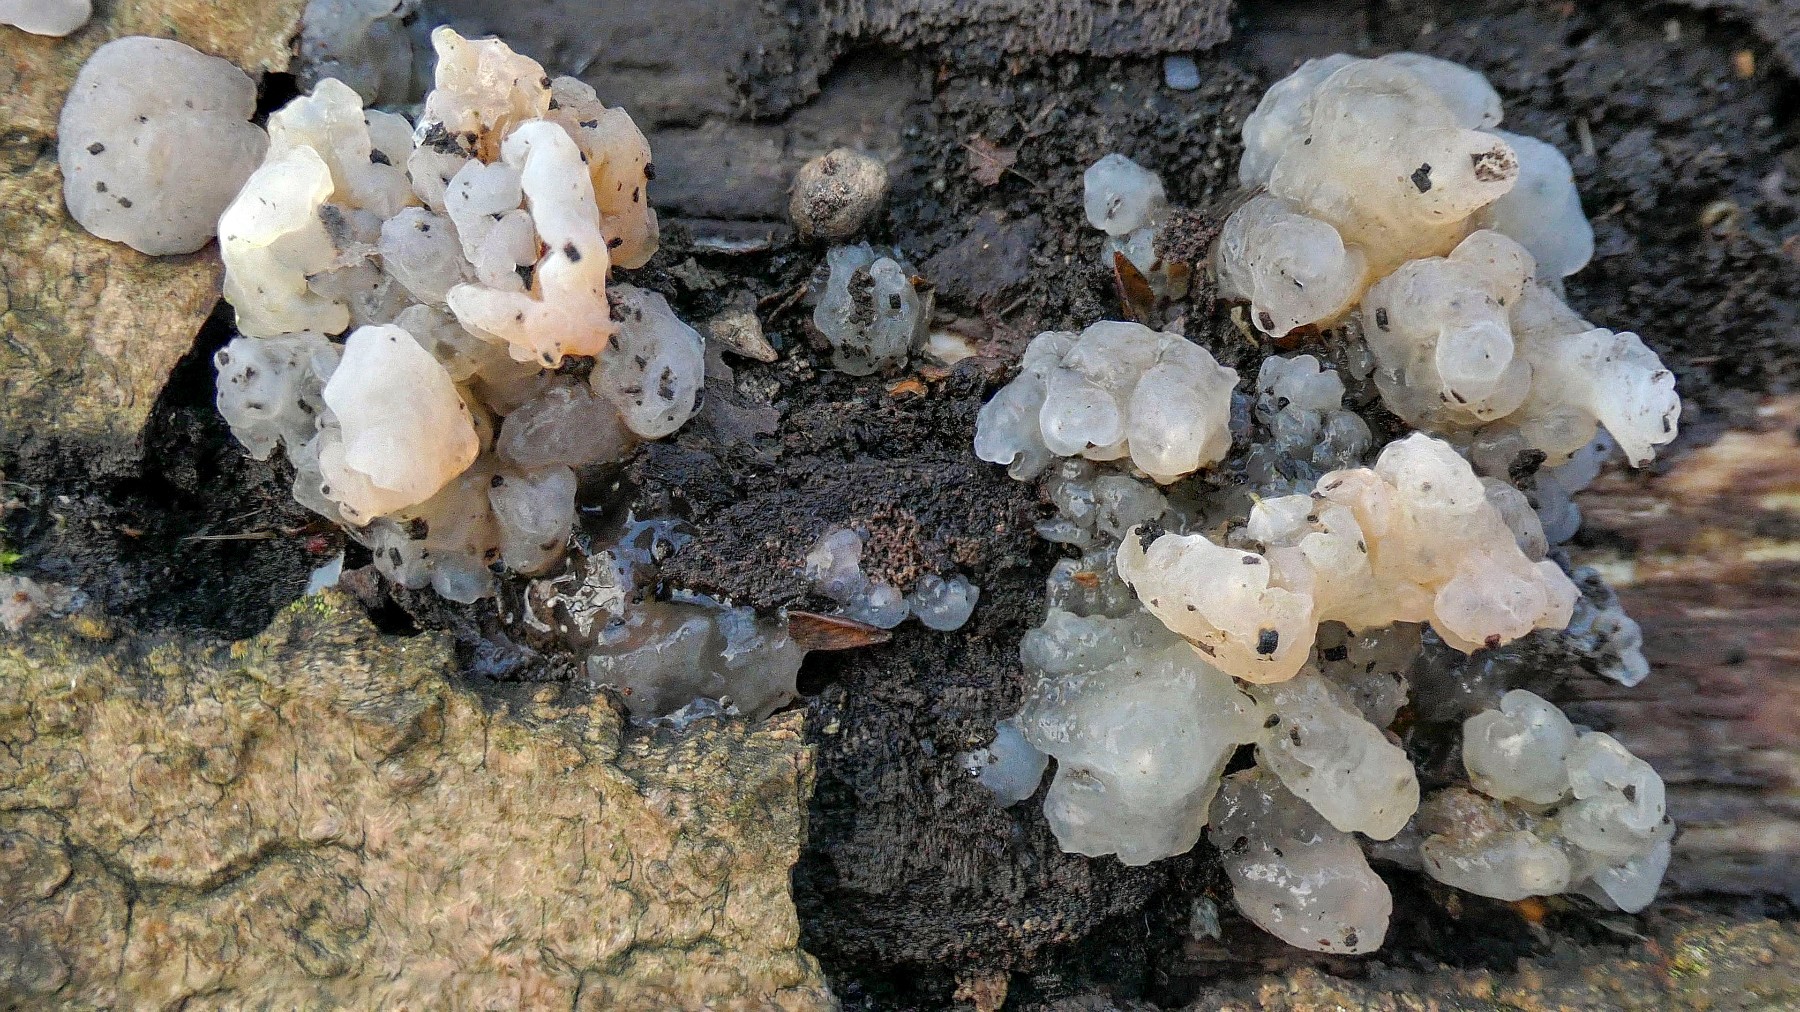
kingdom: Fungi
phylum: Basidiomycota
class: Agaricomycetes
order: Auriculariales
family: Hyaloriaceae
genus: Myxarium
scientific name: Myxarium nucleatum
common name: klar bævretop
